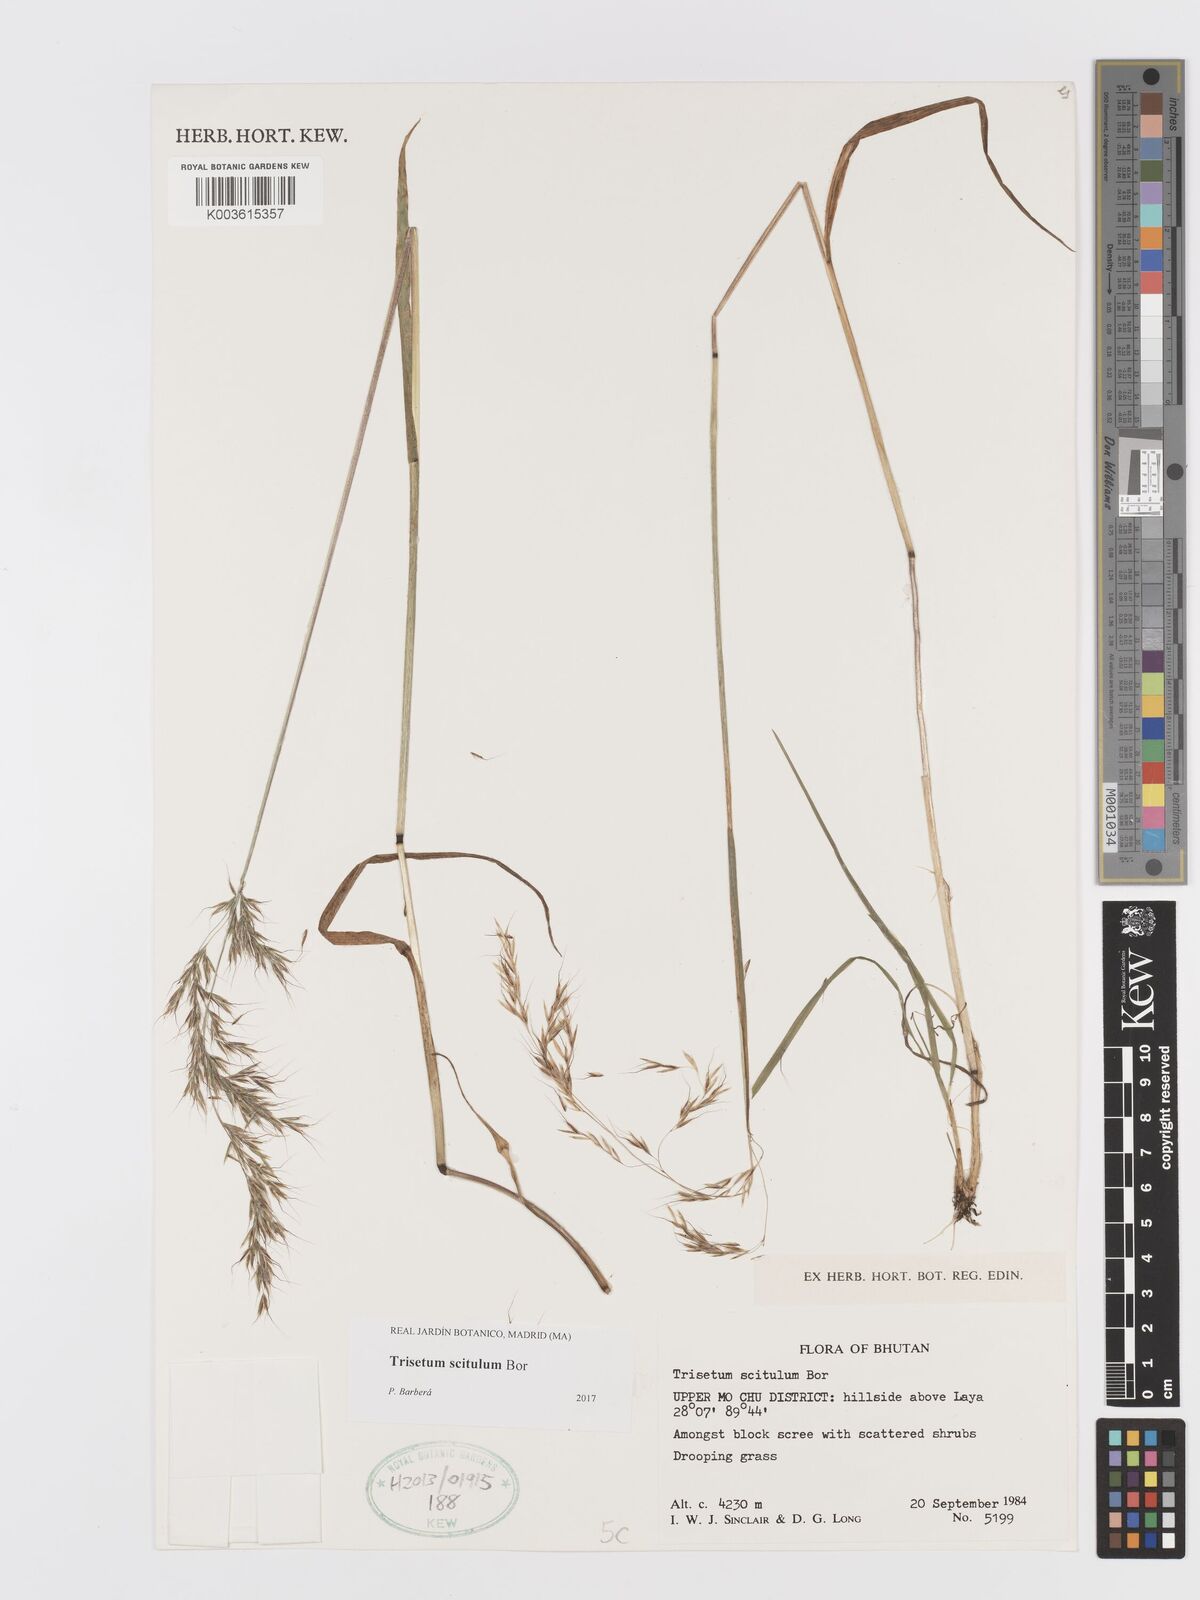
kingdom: Plantae
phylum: Tracheophyta
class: Liliopsida
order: Poales
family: Poaceae
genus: Sibirotrisetum
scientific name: Sibirotrisetum scitulum
